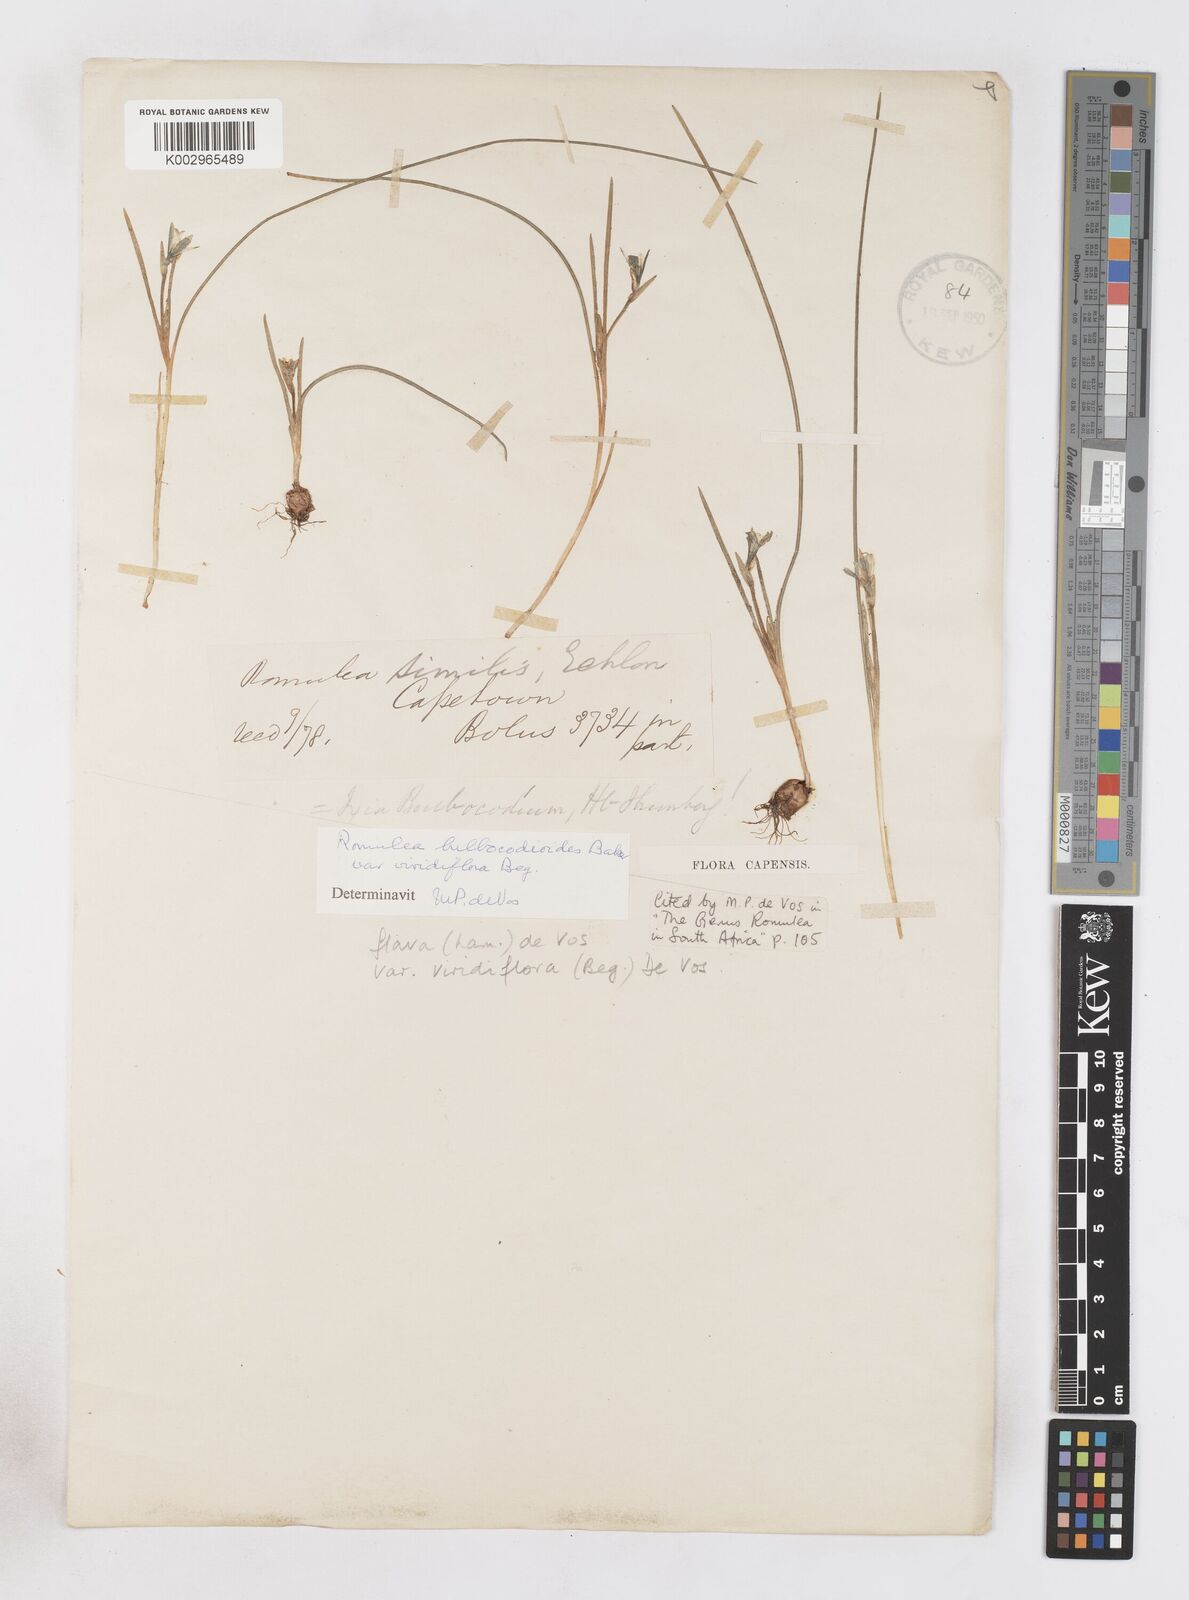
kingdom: Plantae
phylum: Tracheophyta
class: Liliopsida
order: Asparagales
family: Iridaceae
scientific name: Iridaceae
